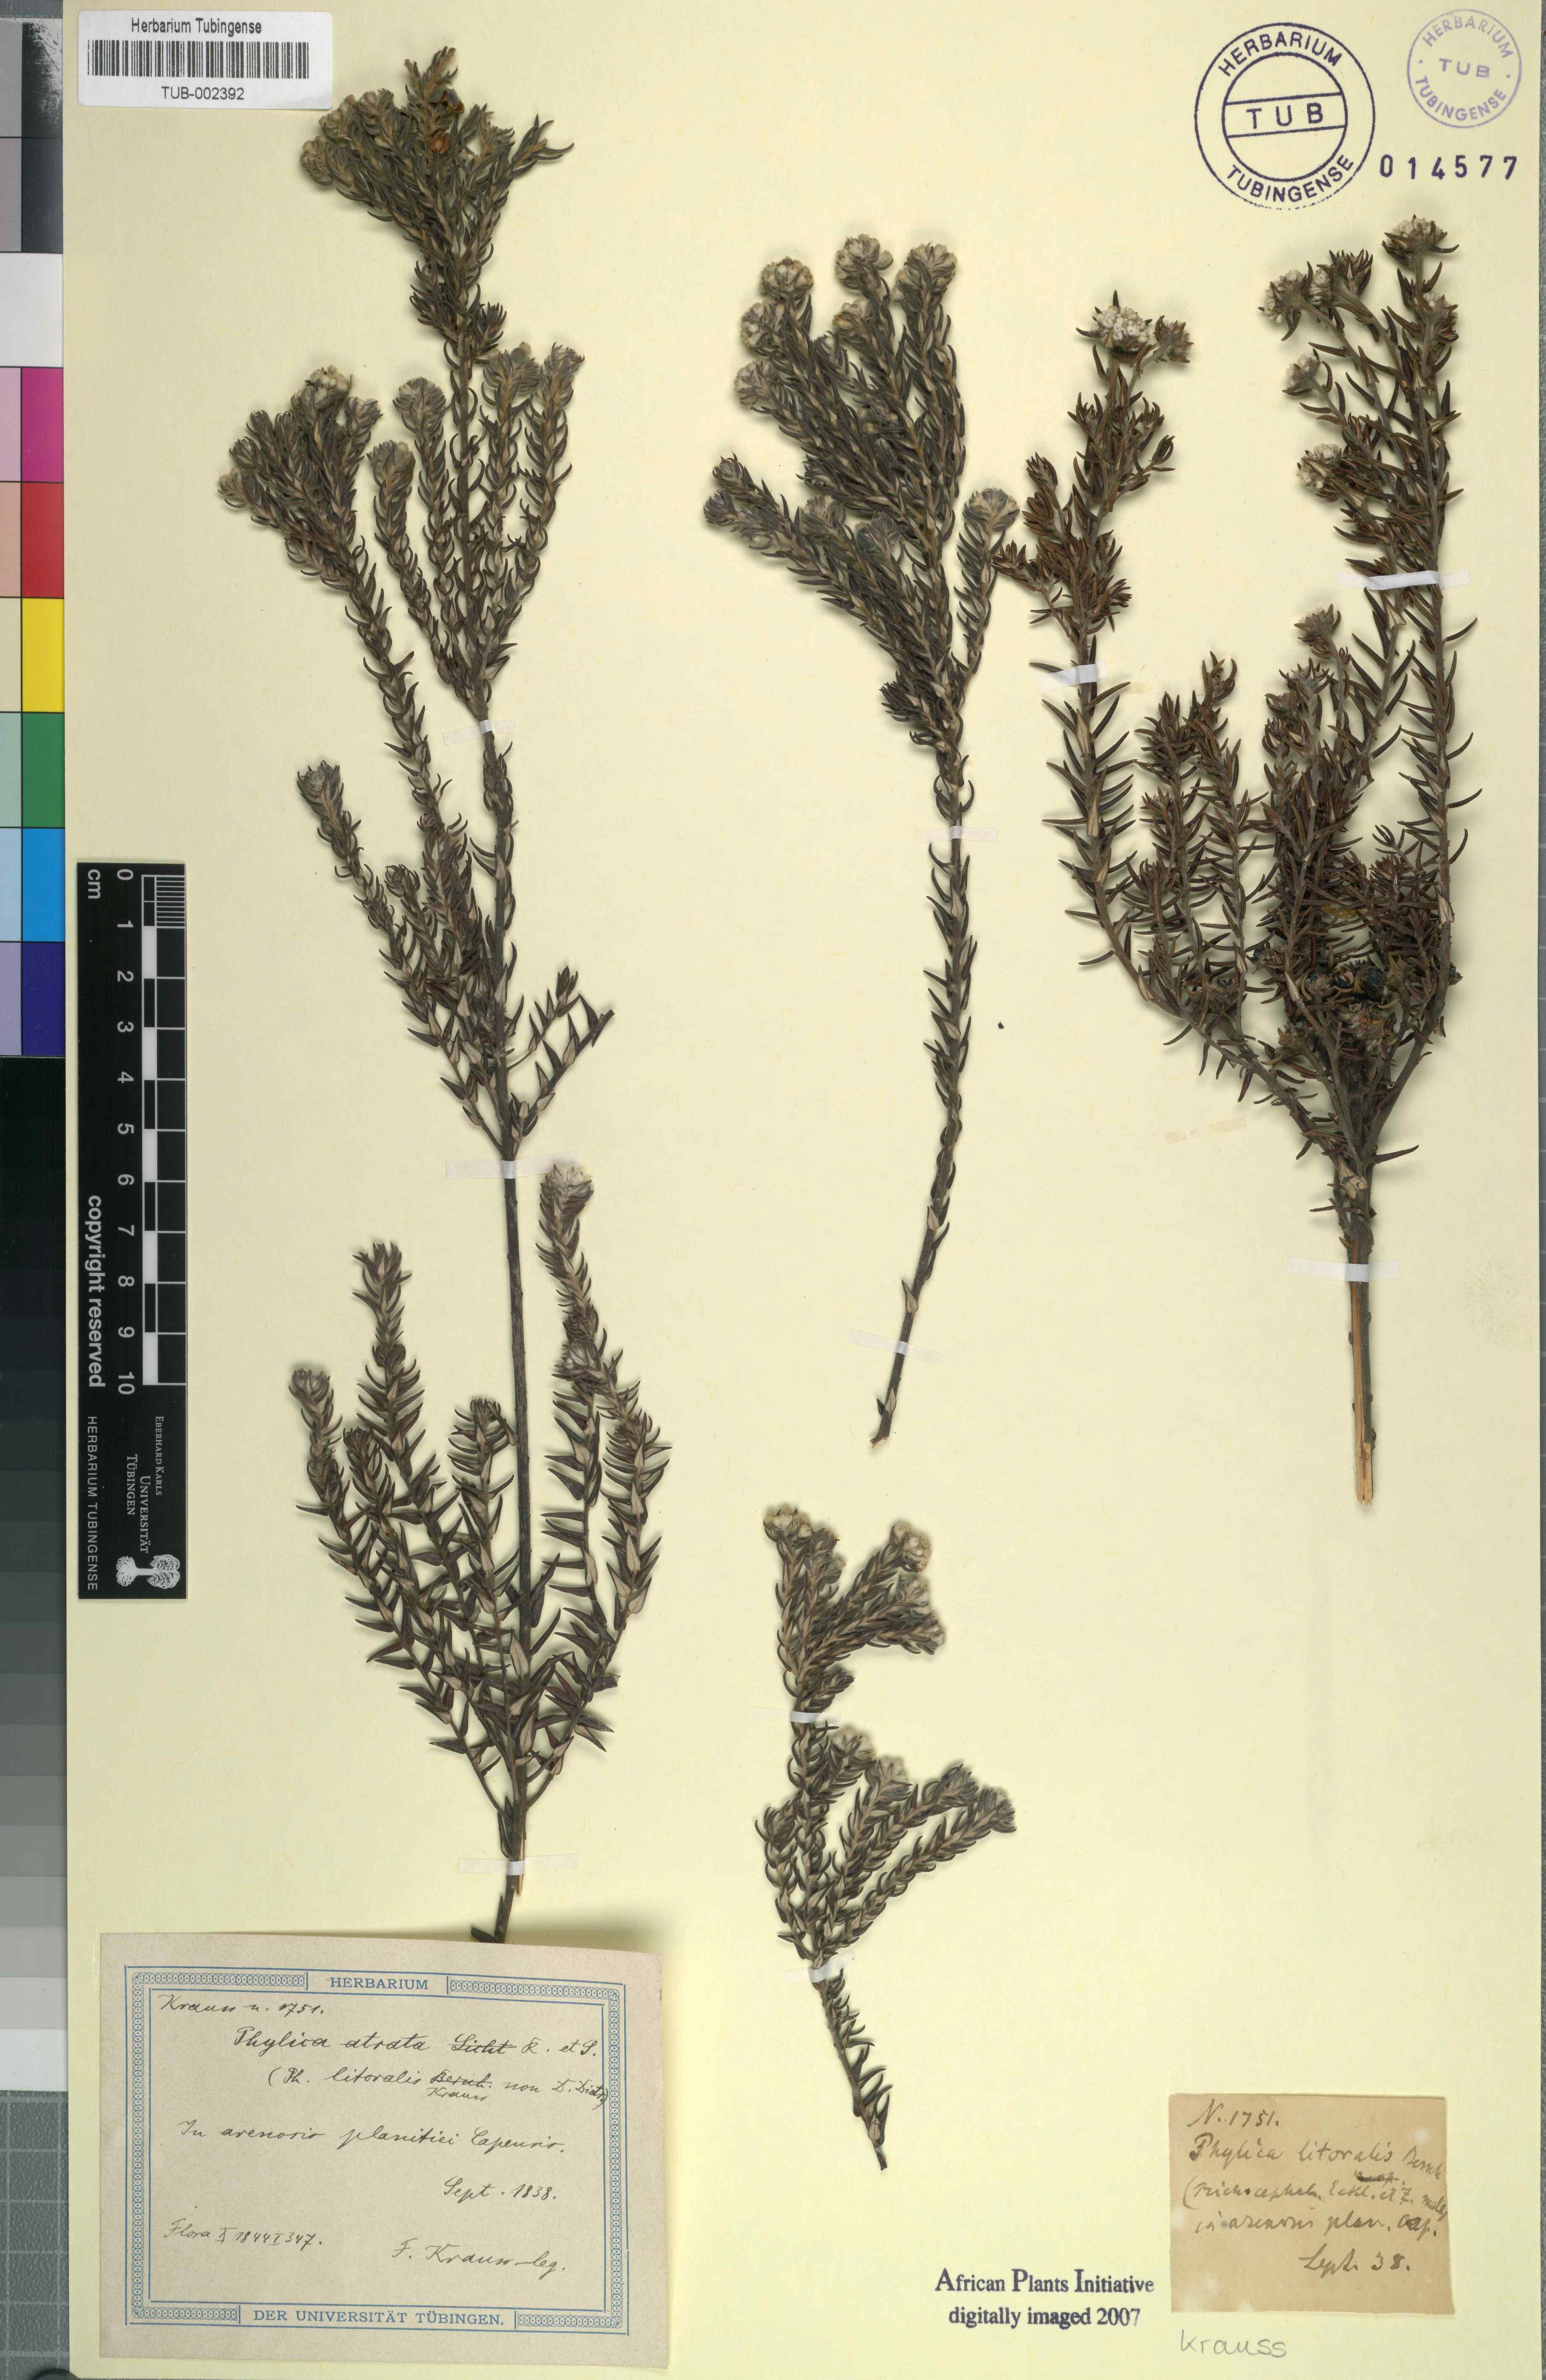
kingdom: Plantae
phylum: Tracheophyta
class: Magnoliopsida
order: Rosales
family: Rhamnaceae
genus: Phylica
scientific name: Phylica litoralis
